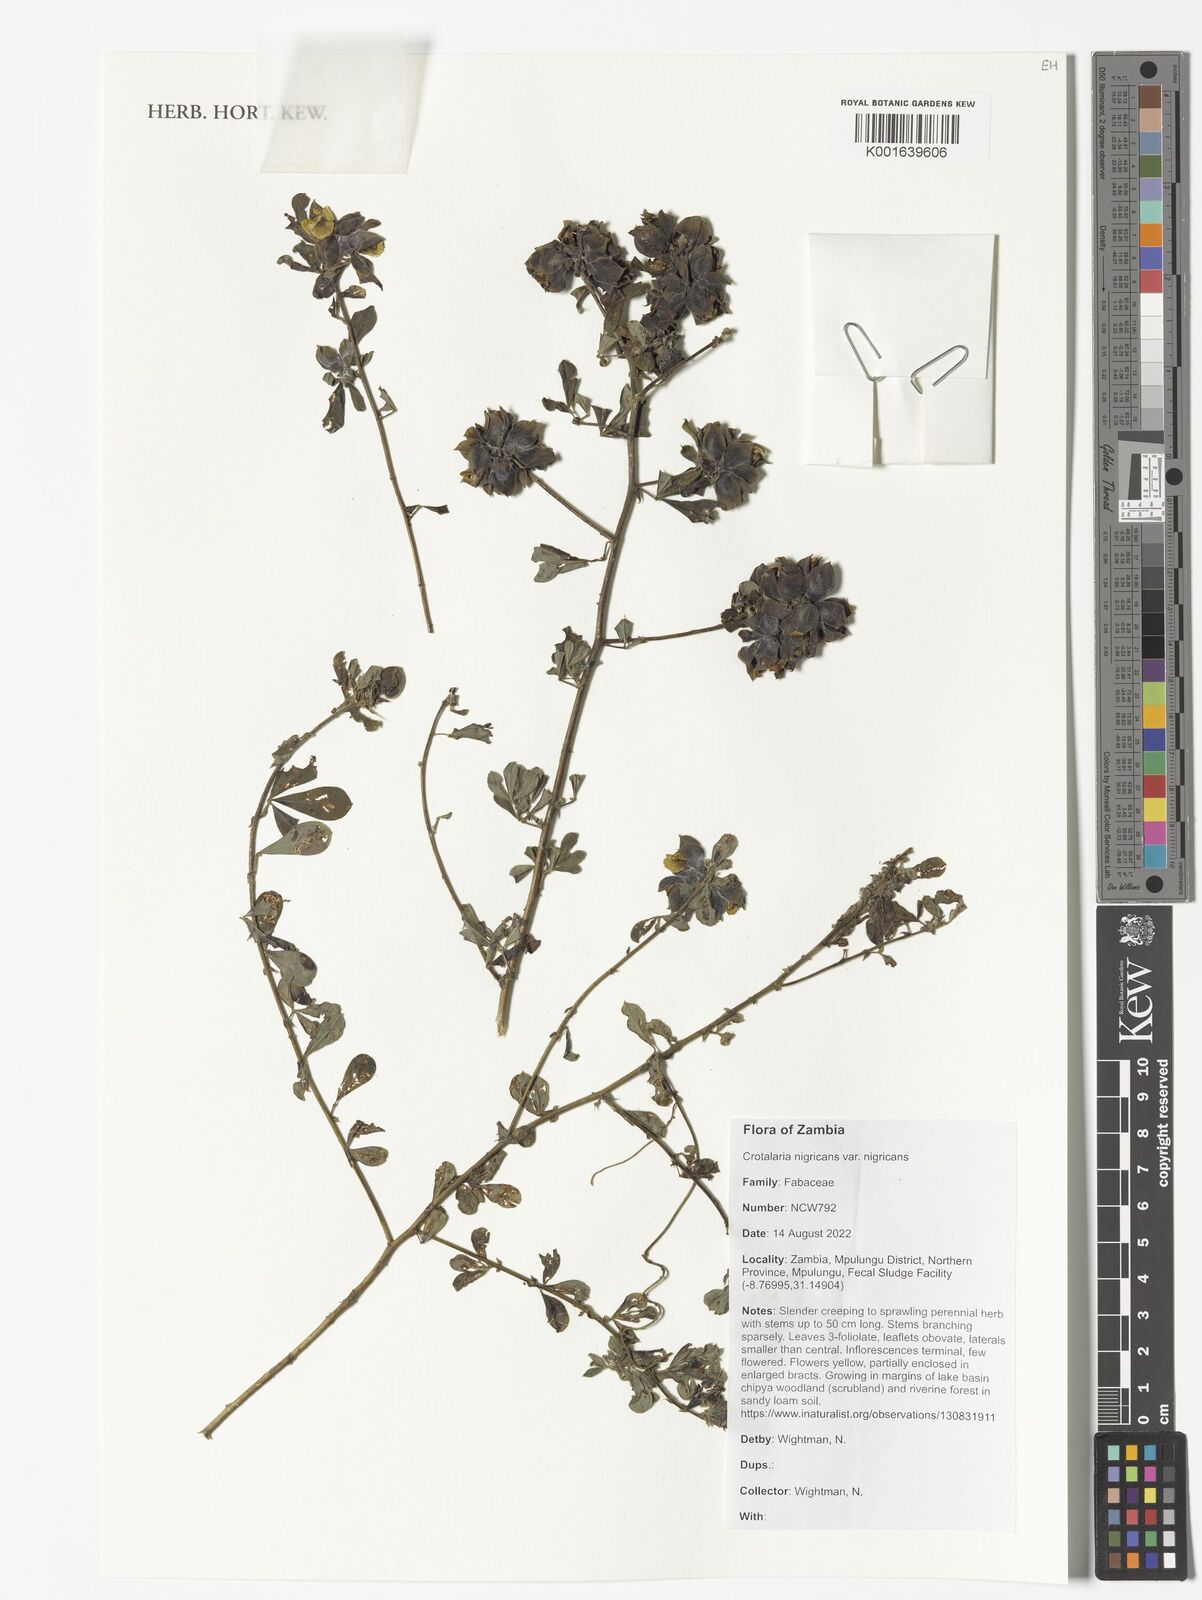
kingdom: Plantae
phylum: Tracheophyta
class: Magnoliopsida
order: Fabales
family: Fabaceae
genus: Crotalaria
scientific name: Crotalaria nigricans
